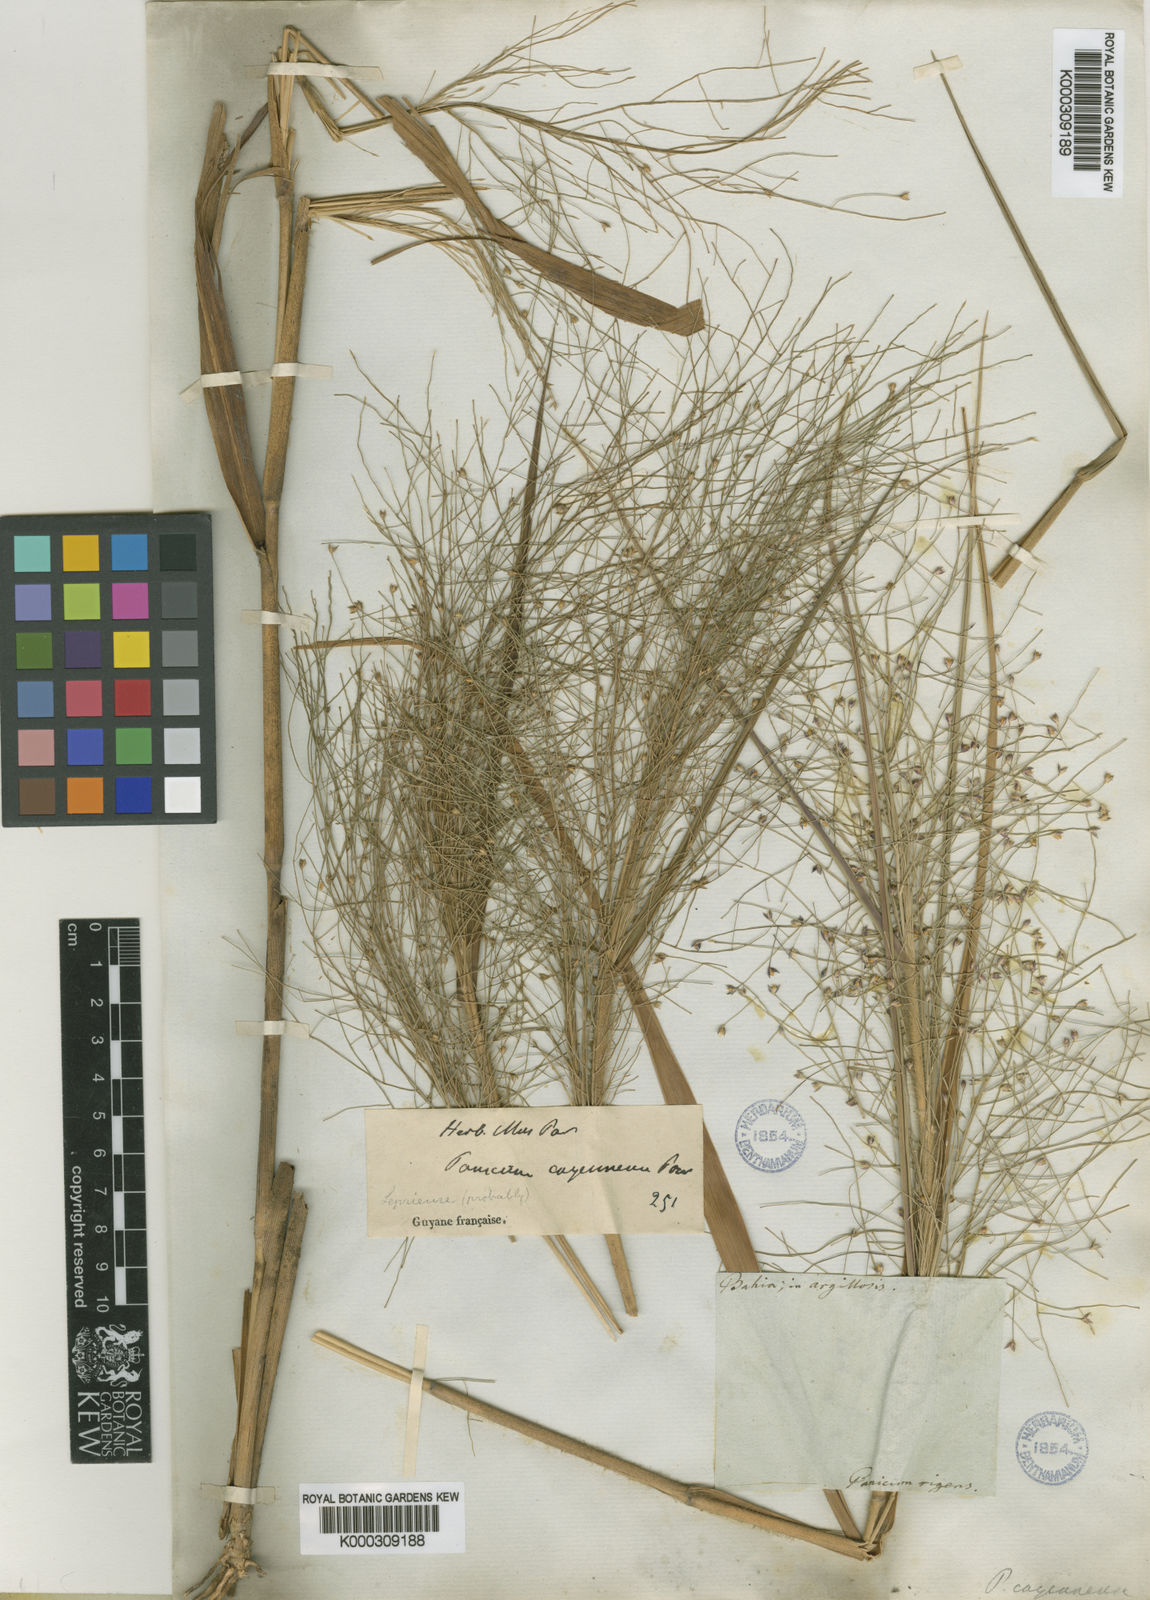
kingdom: Plantae
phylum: Tracheophyta
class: Liliopsida
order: Poales
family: Poaceae
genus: Panicum
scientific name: Panicum rudgei
